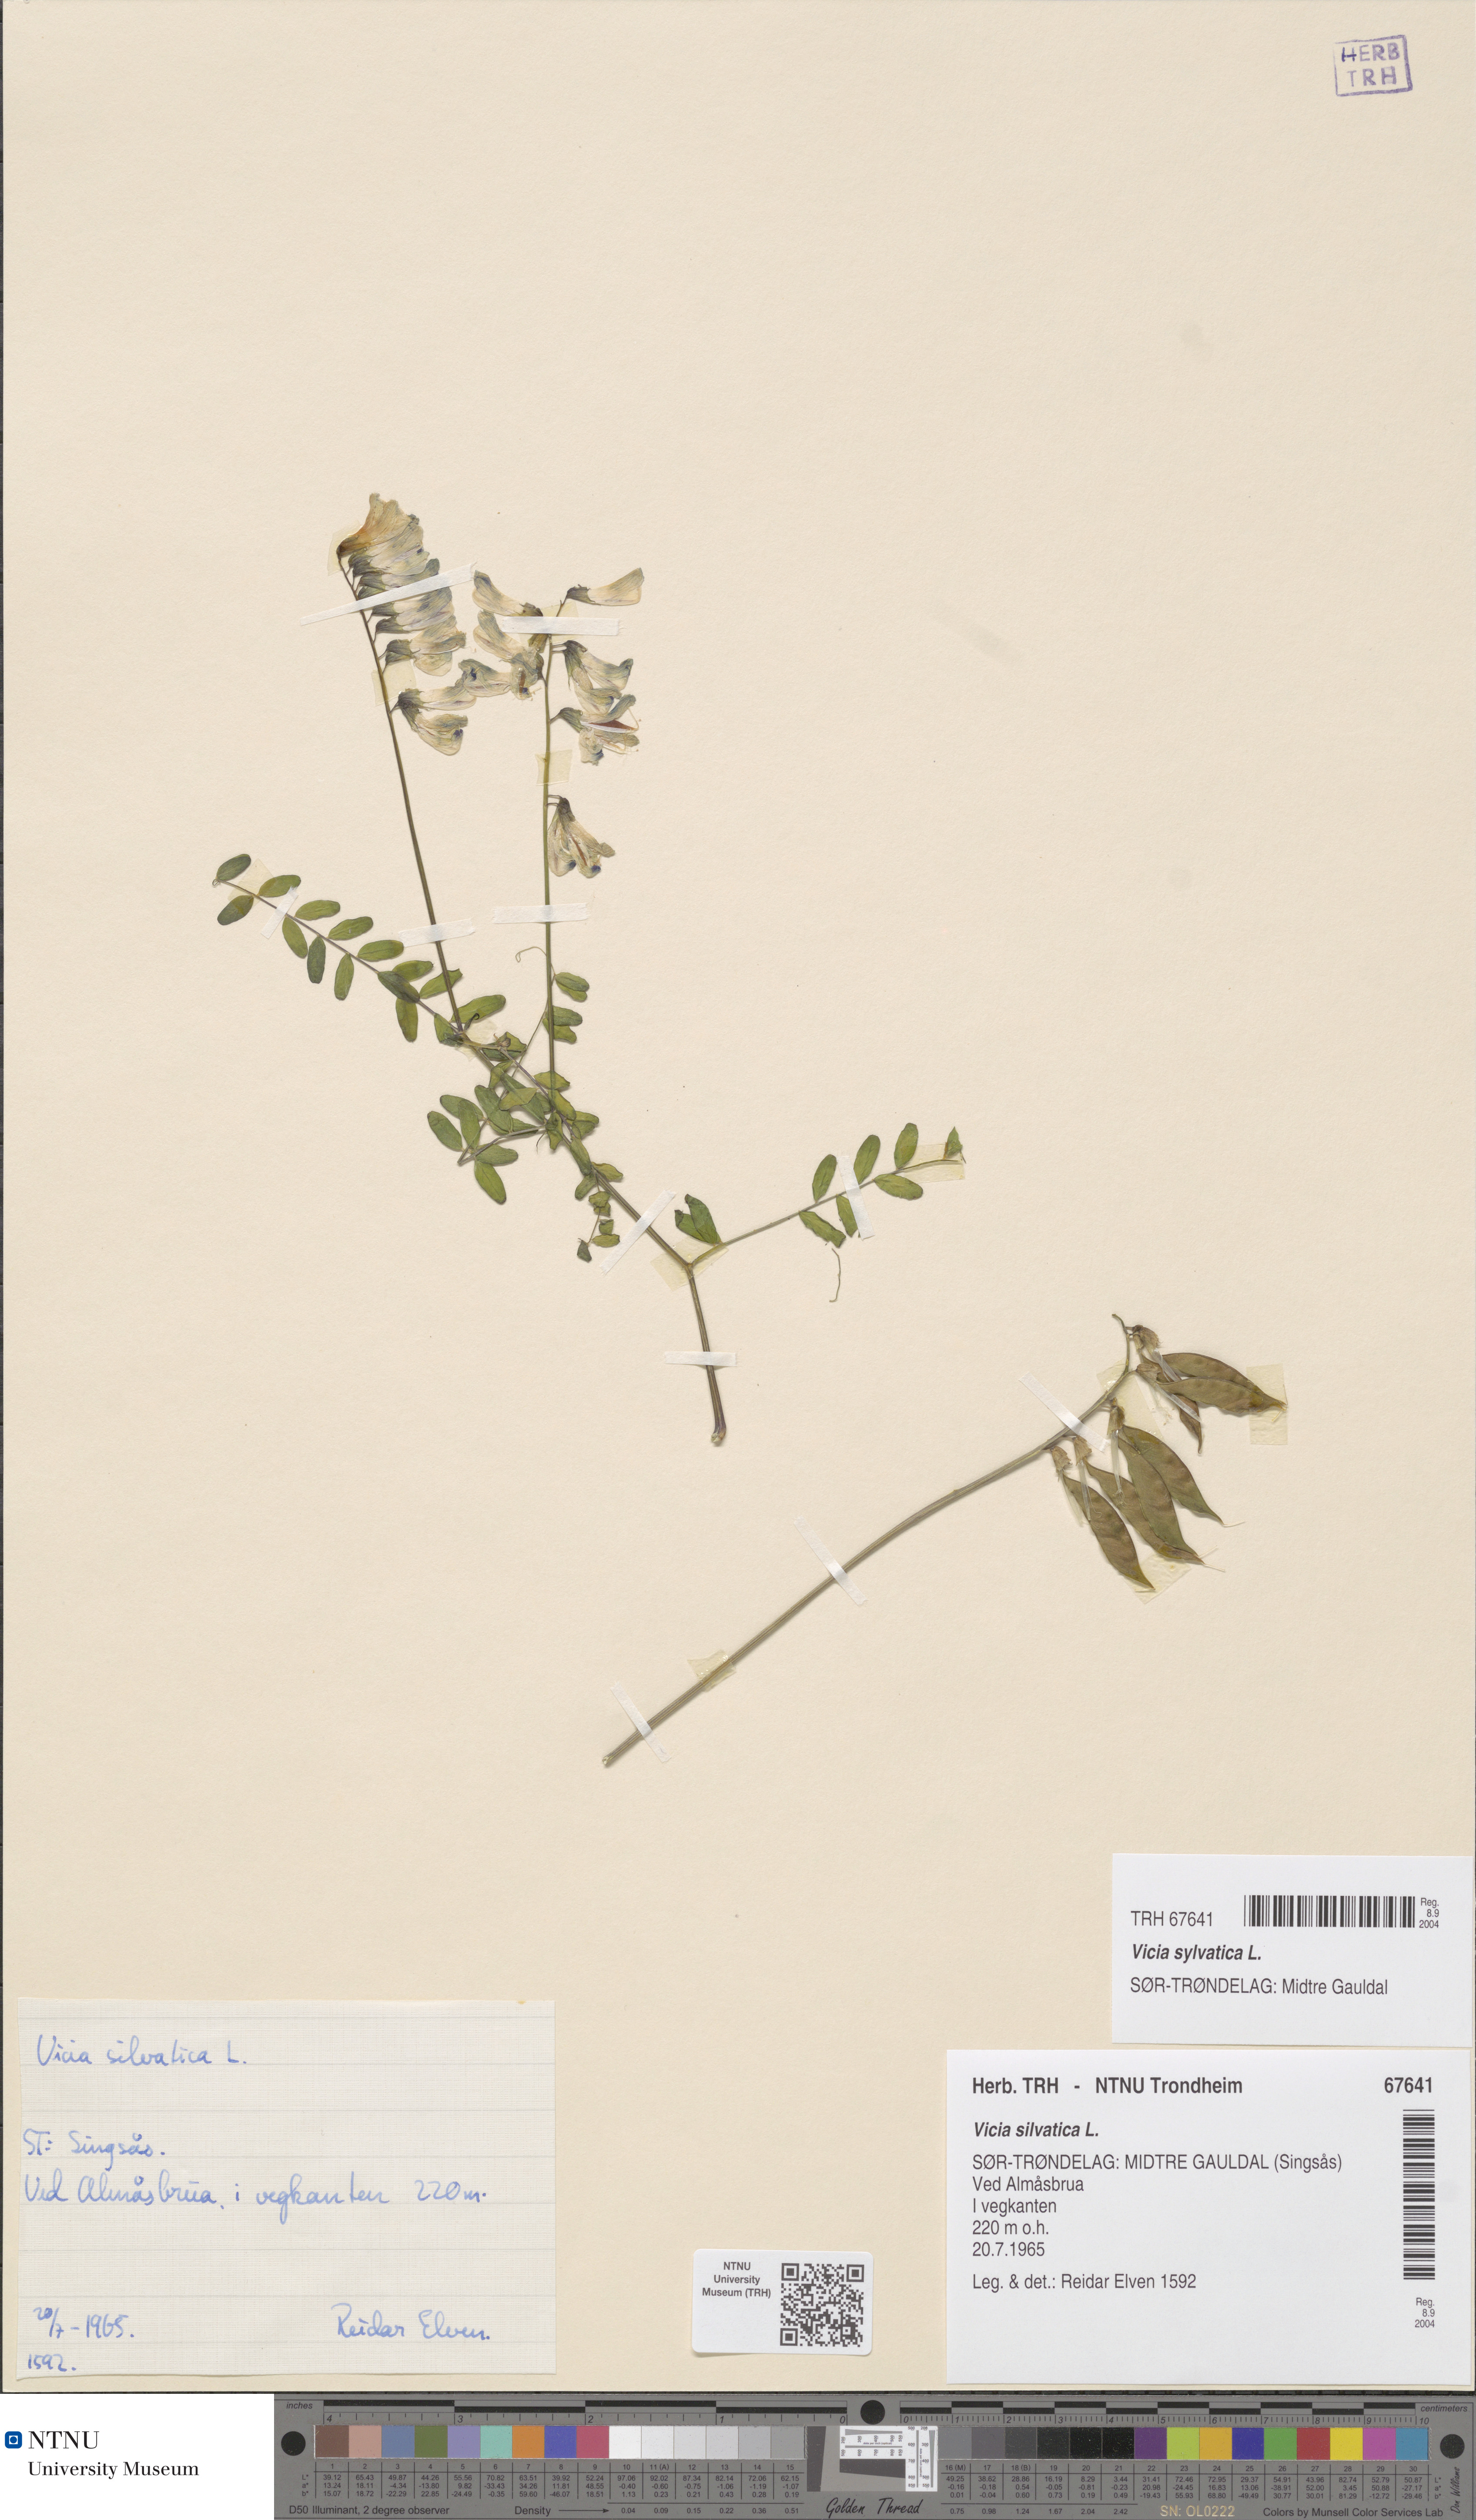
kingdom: Plantae
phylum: Tracheophyta
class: Magnoliopsida
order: Fabales
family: Fabaceae
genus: Vicia
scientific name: Vicia sylvatica
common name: Wood vetch
